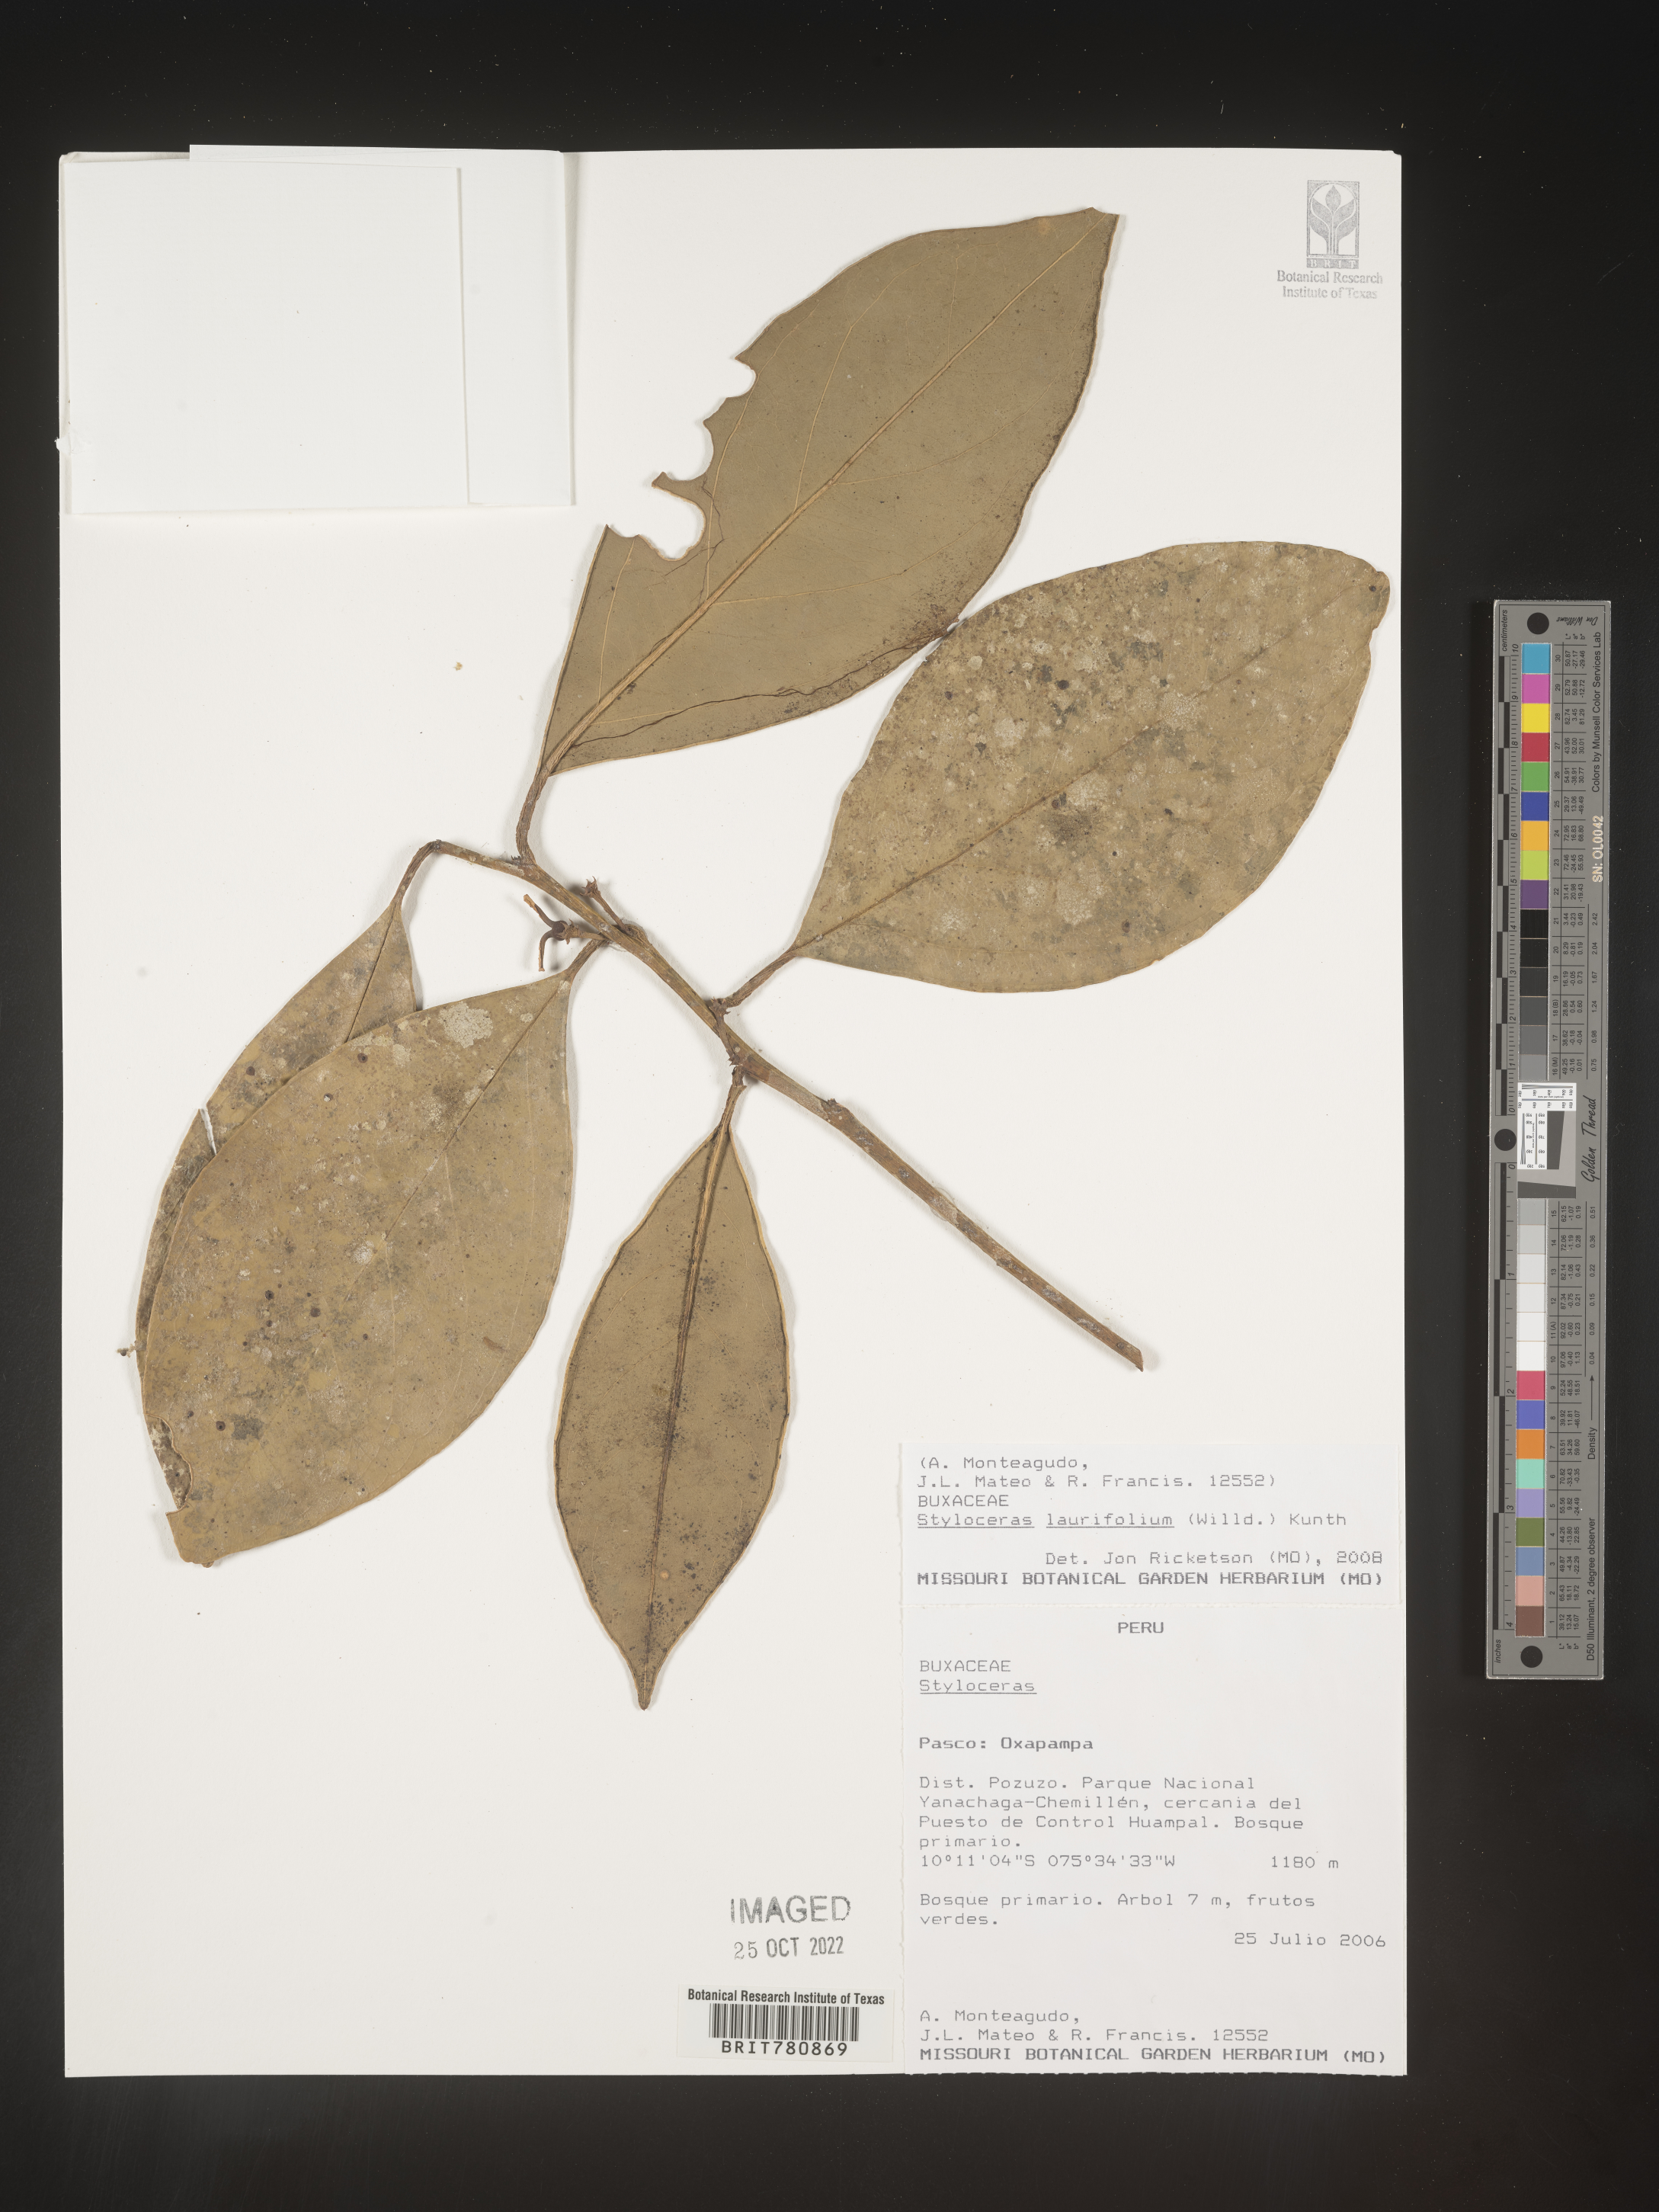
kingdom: Plantae
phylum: Tracheophyta
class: Magnoliopsida
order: Buxales
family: Buxaceae
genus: Styloceras
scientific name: Styloceras
